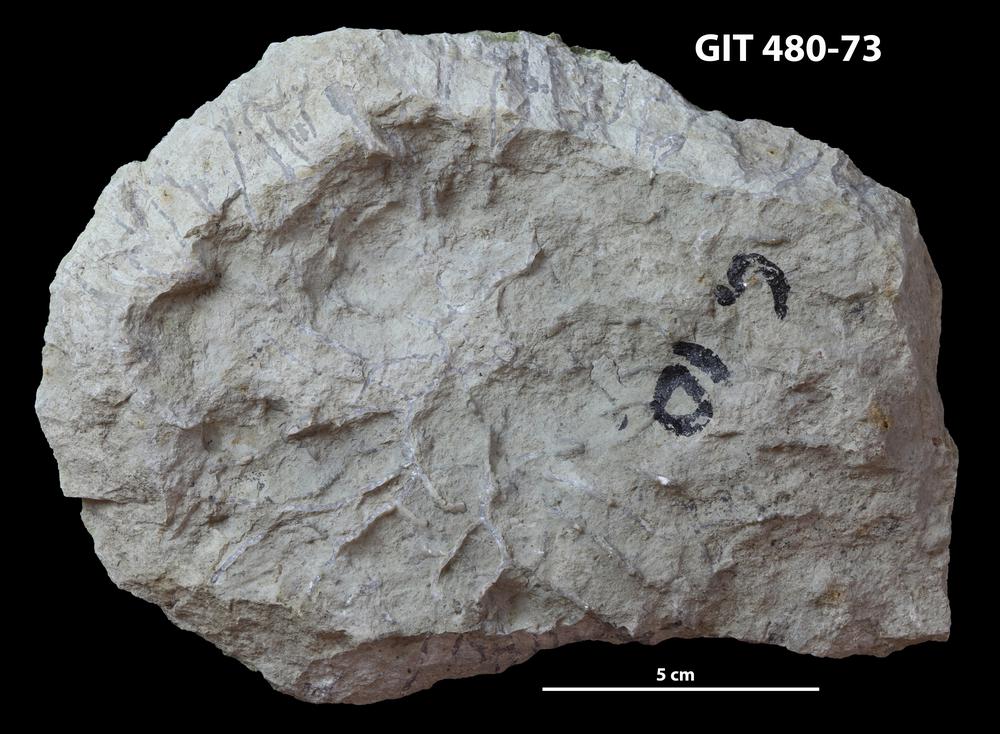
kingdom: Animalia
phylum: Cnidaria
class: Anthozoa
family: Cateniporidae
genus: Catenipora
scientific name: Catenipora
